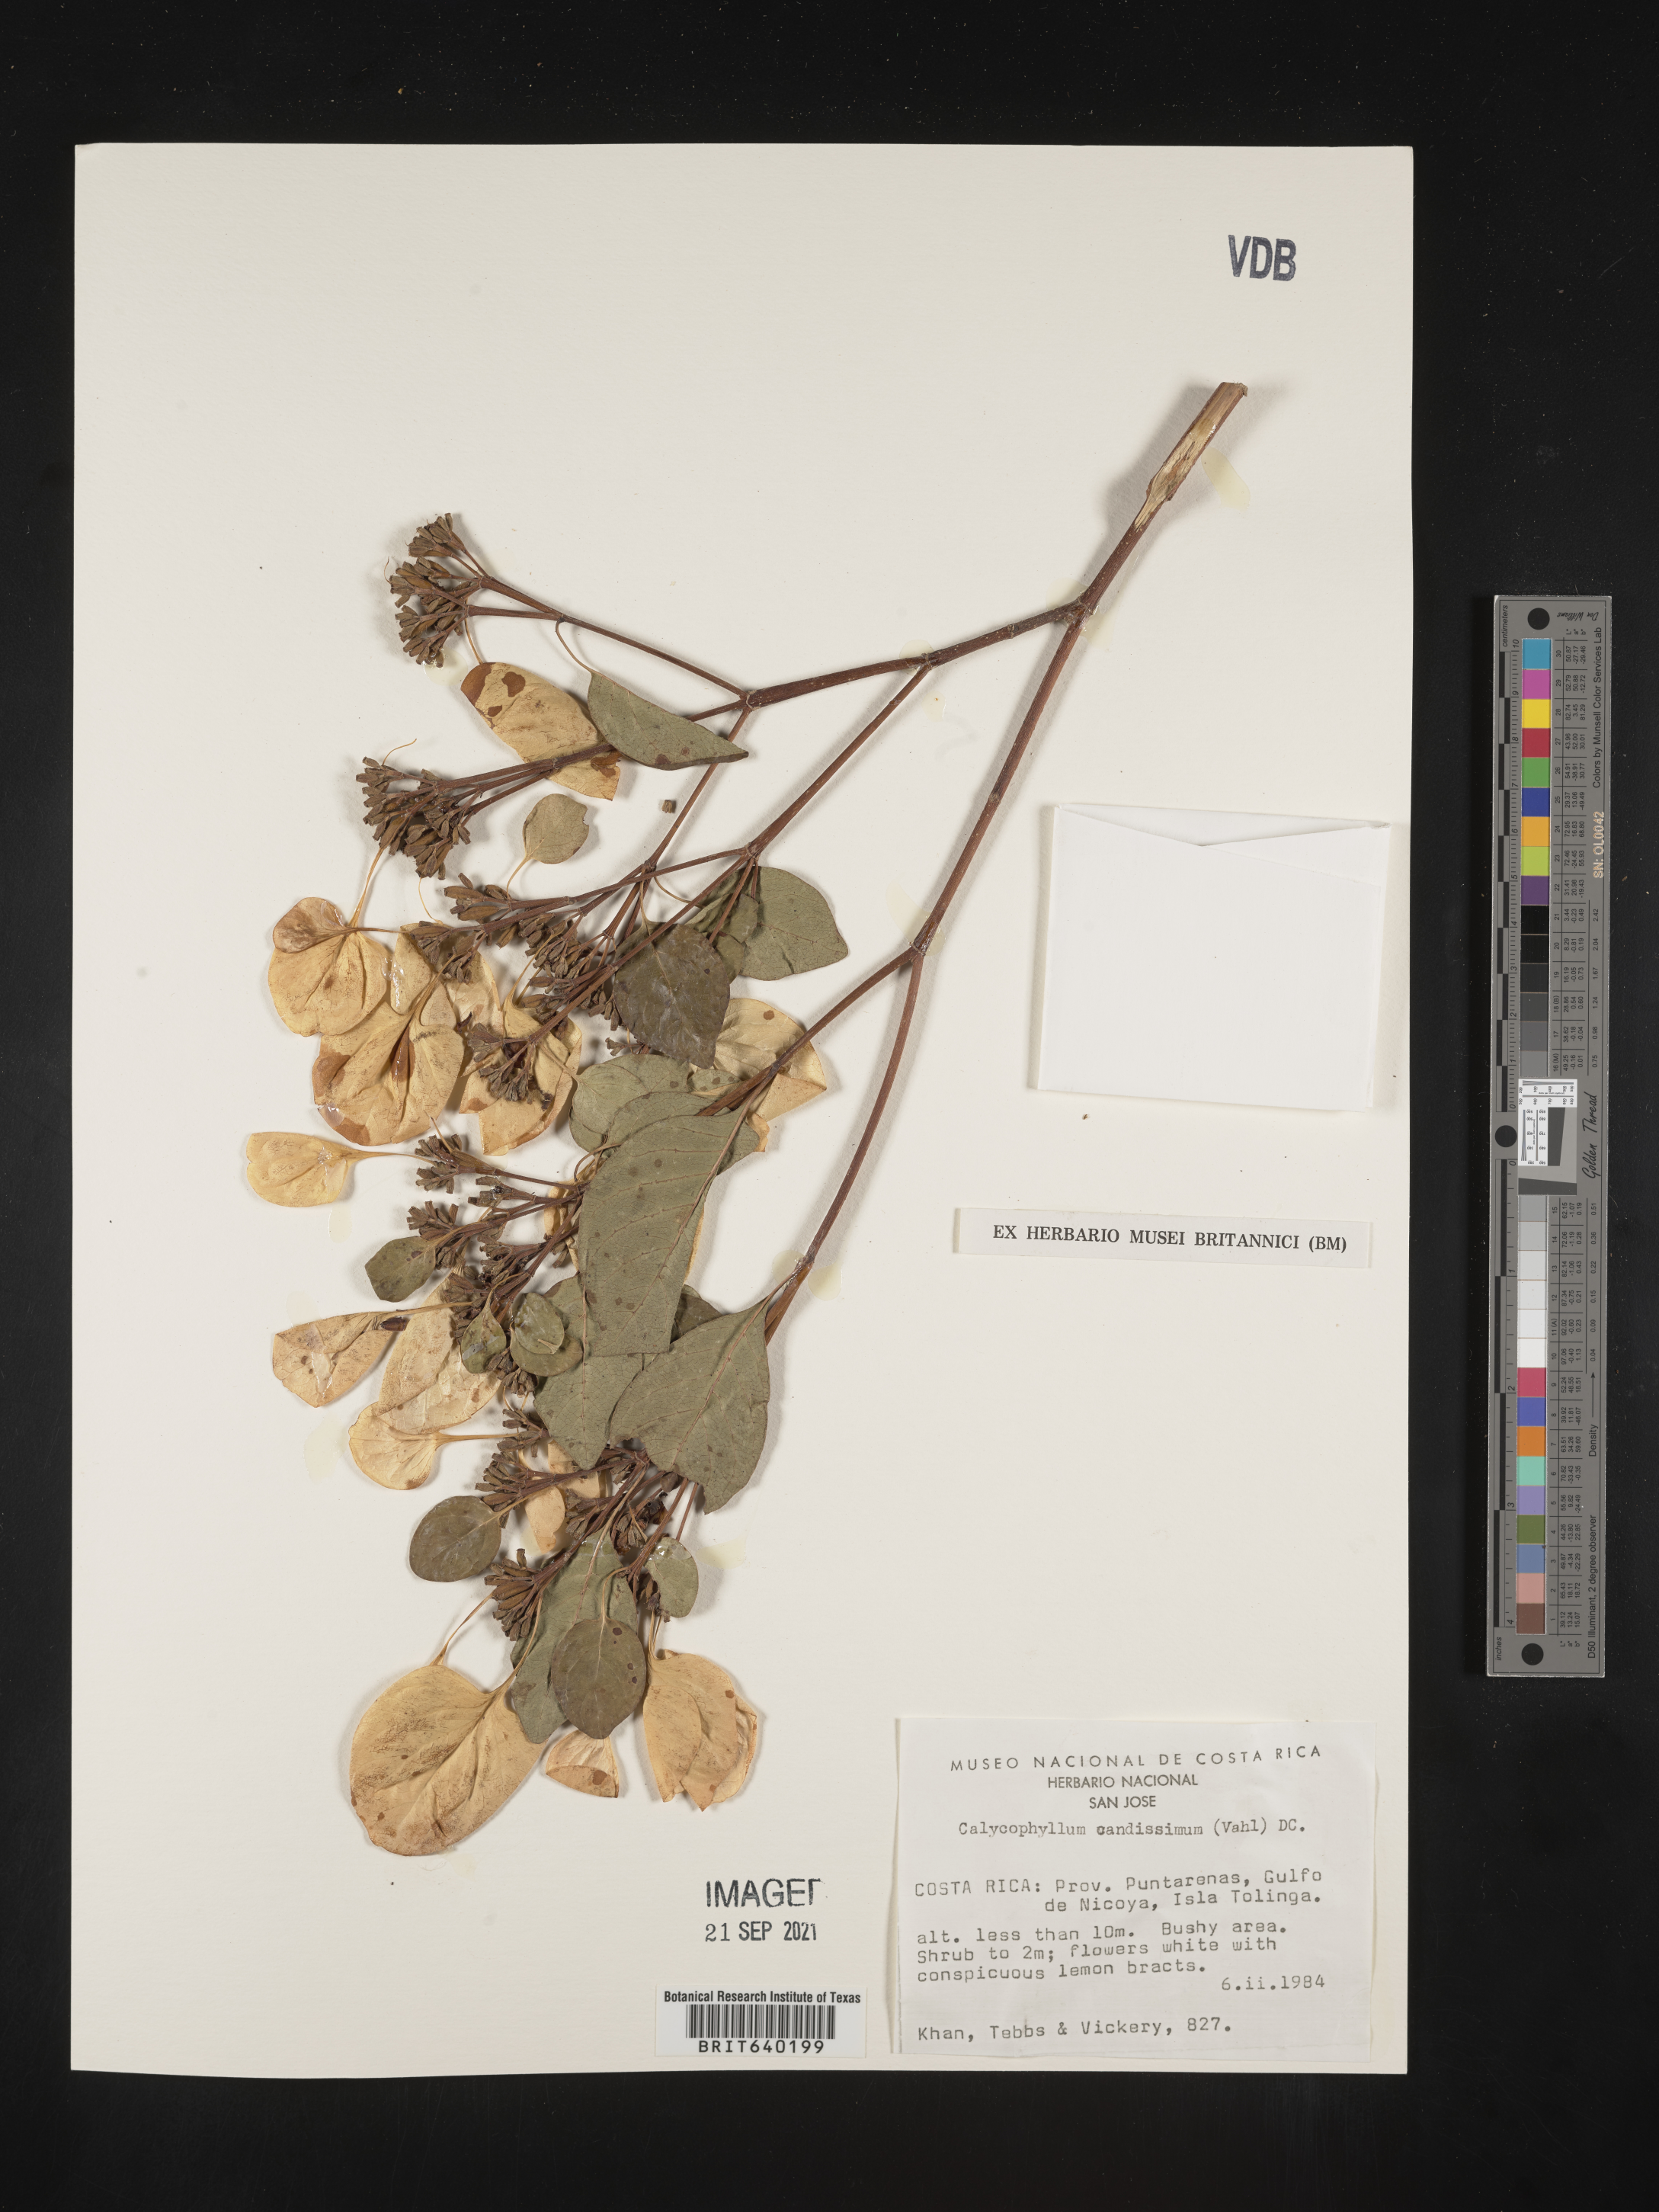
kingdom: Plantae
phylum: Tracheophyta
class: Magnoliopsida
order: Gentianales
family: Rubiaceae
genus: Calycophyllum
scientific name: Calycophyllum
